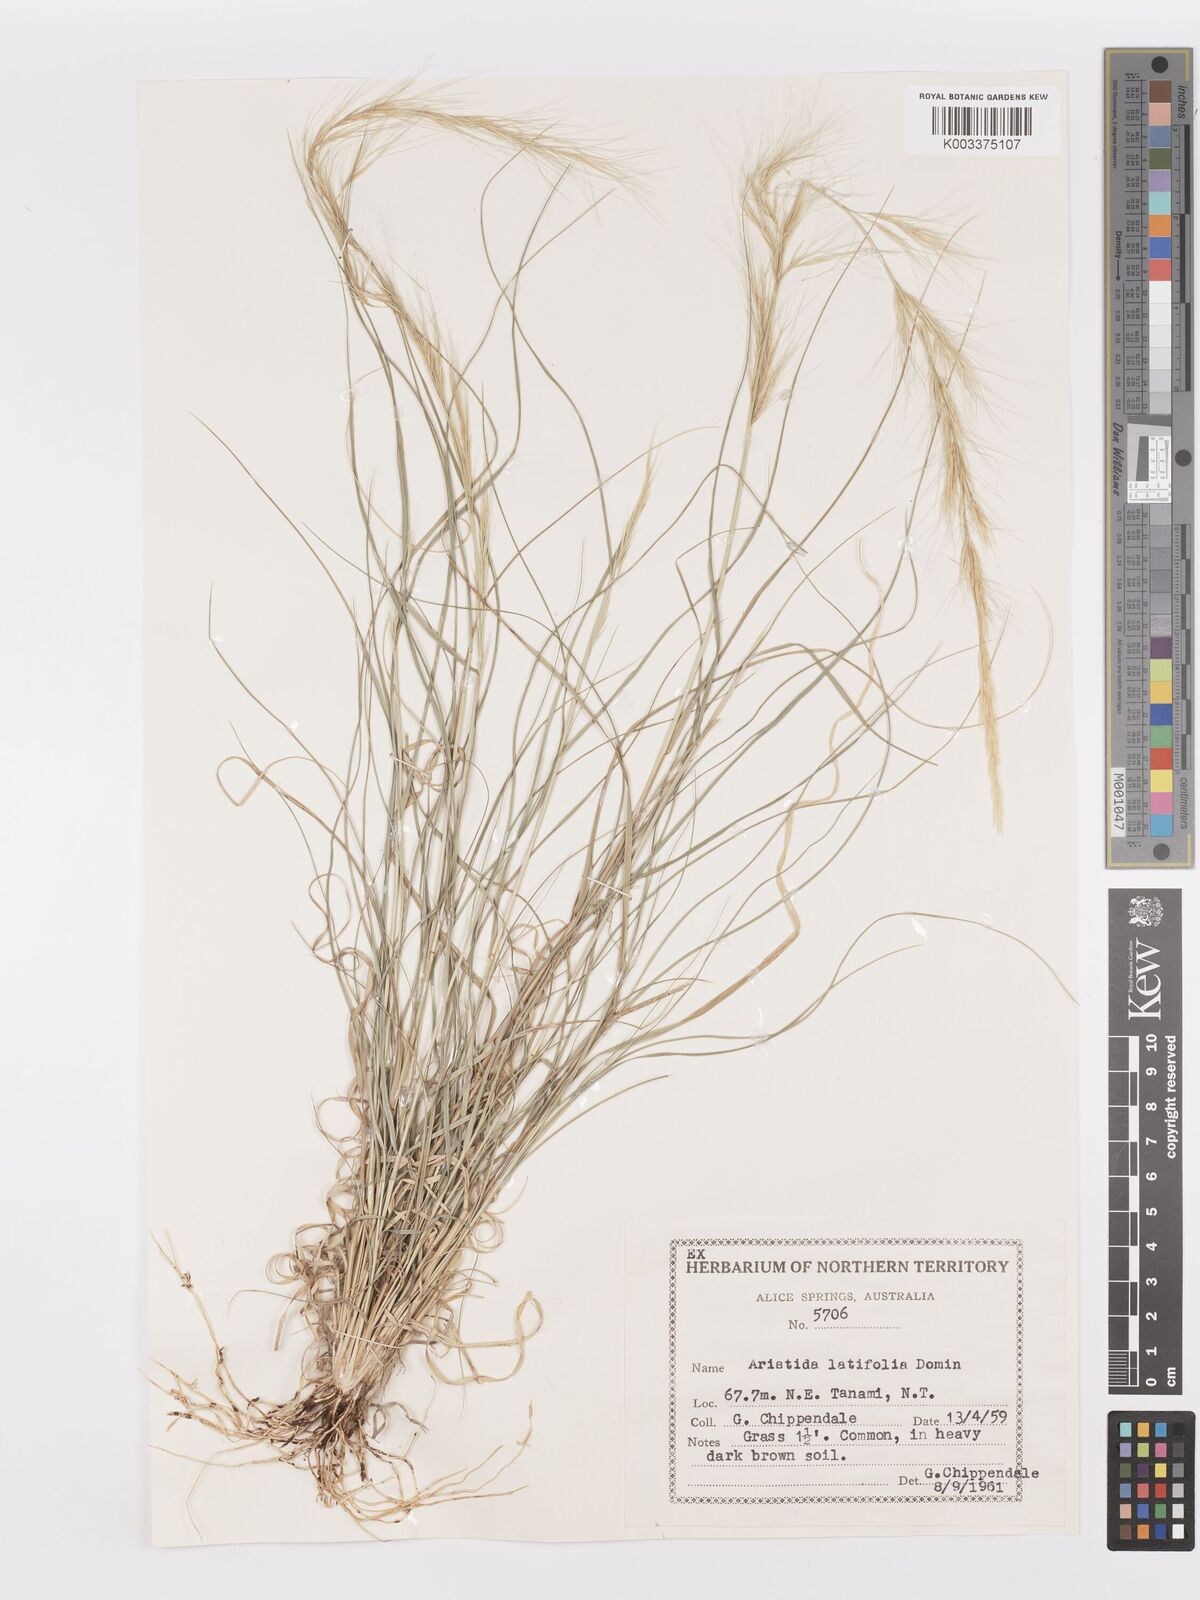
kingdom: Plantae
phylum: Tracheophyta
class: Liliopsida
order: Poales
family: Poaceae
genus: Aristida
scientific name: Aristida latifolia
